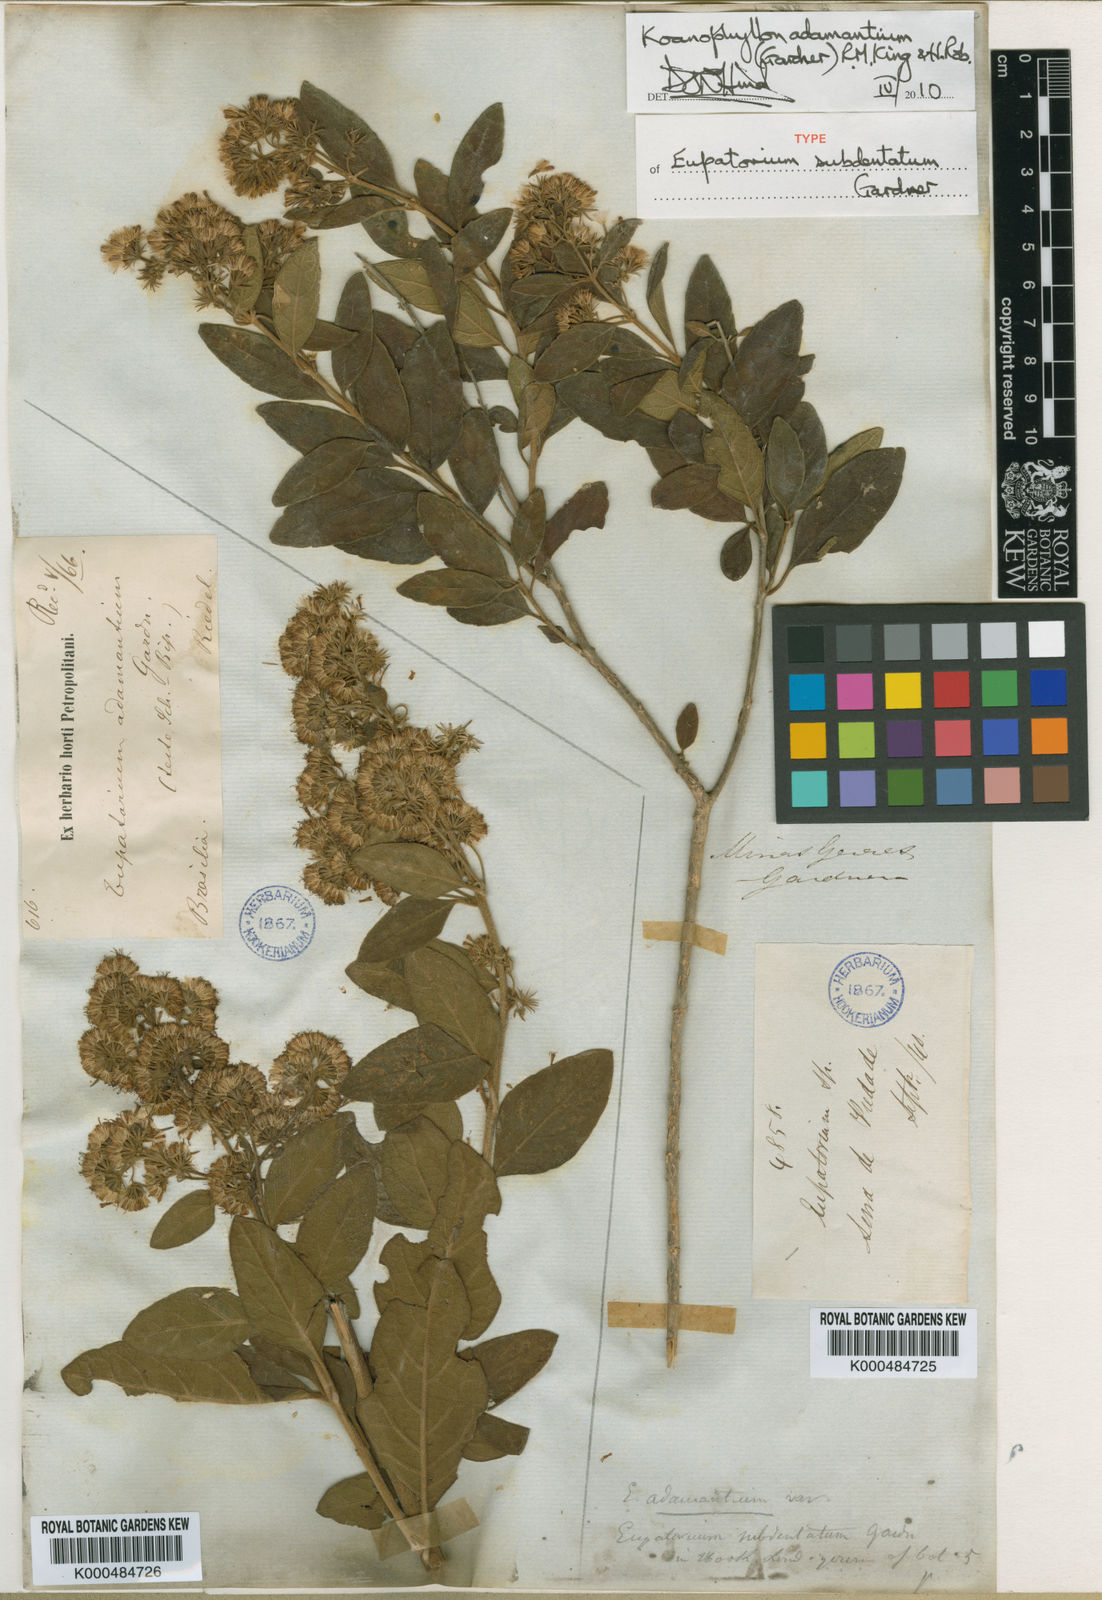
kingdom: Plantae
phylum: Tracheophyta
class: Magnoliopsida
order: Asterales
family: Asteraceae
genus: Koanophyllon
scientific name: Koanophyllon adamantium
